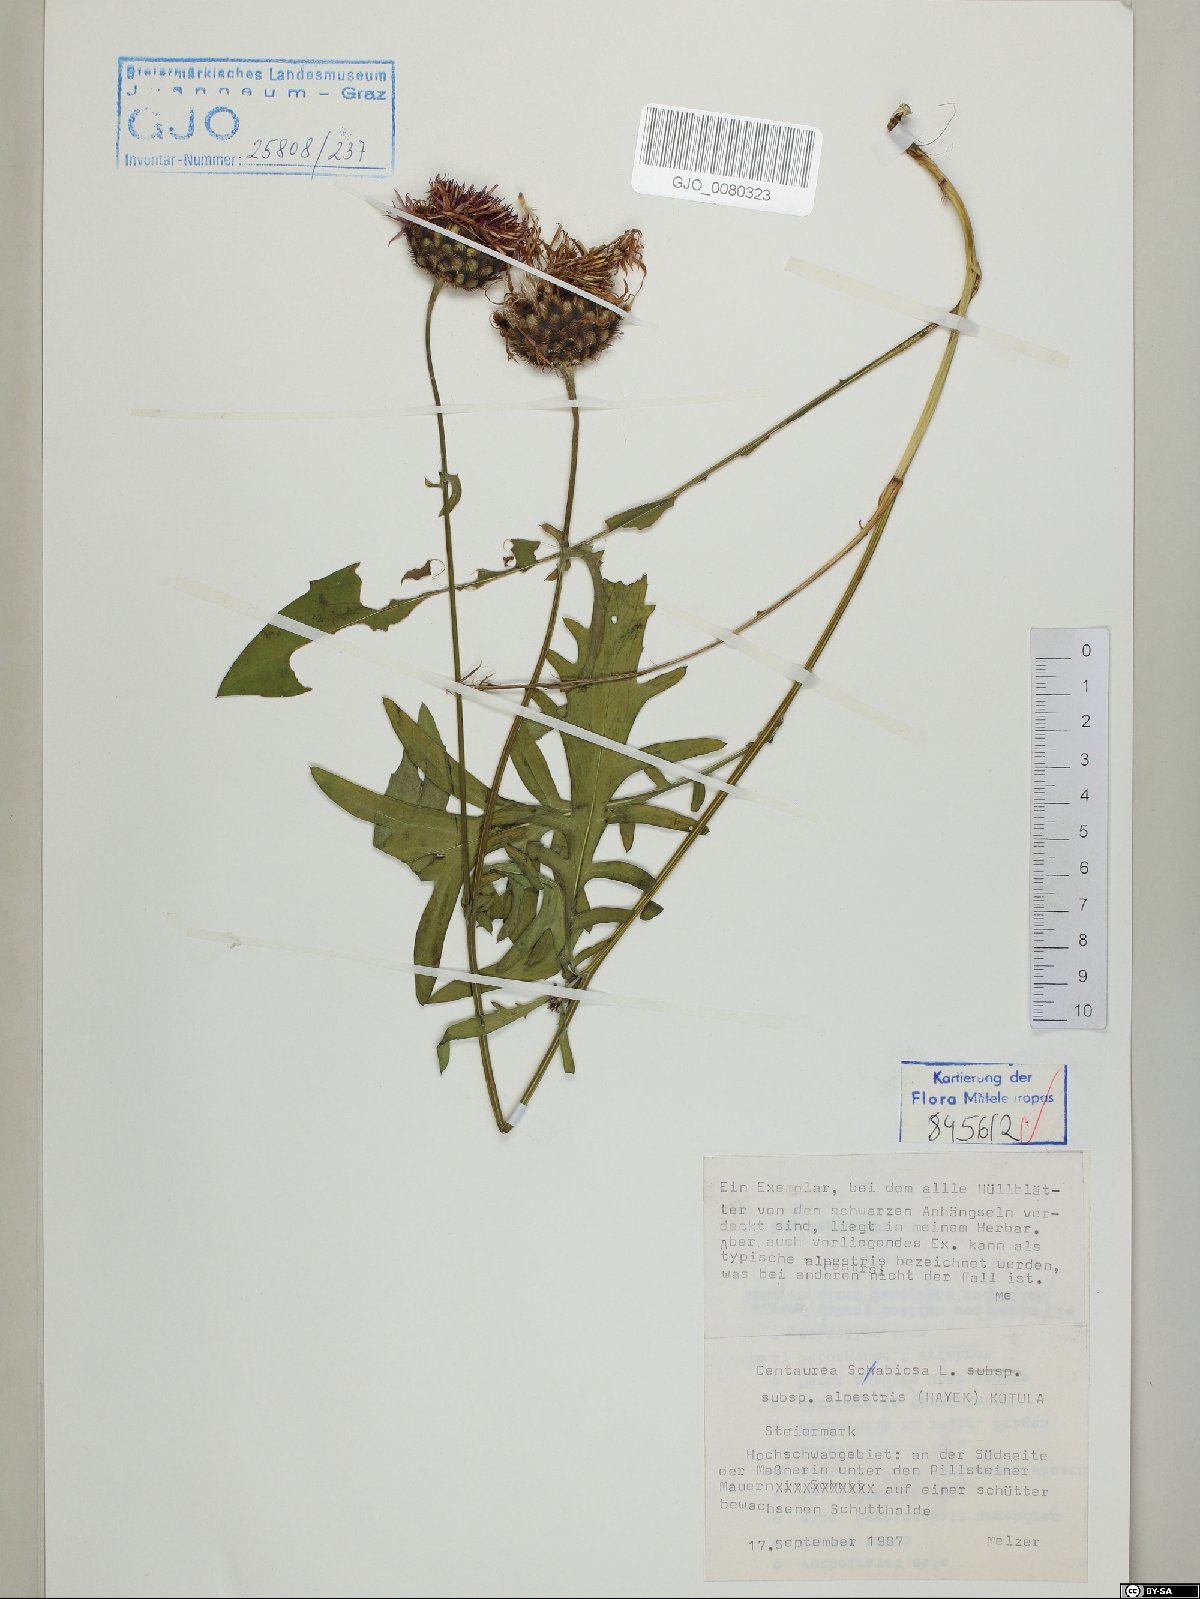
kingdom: Plantae
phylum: Tracheophyta
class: Magnoliopsida
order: Asterales
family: Asteraceae
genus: Centaurea
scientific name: Centaurea scabiosa
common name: Greater knapweed
